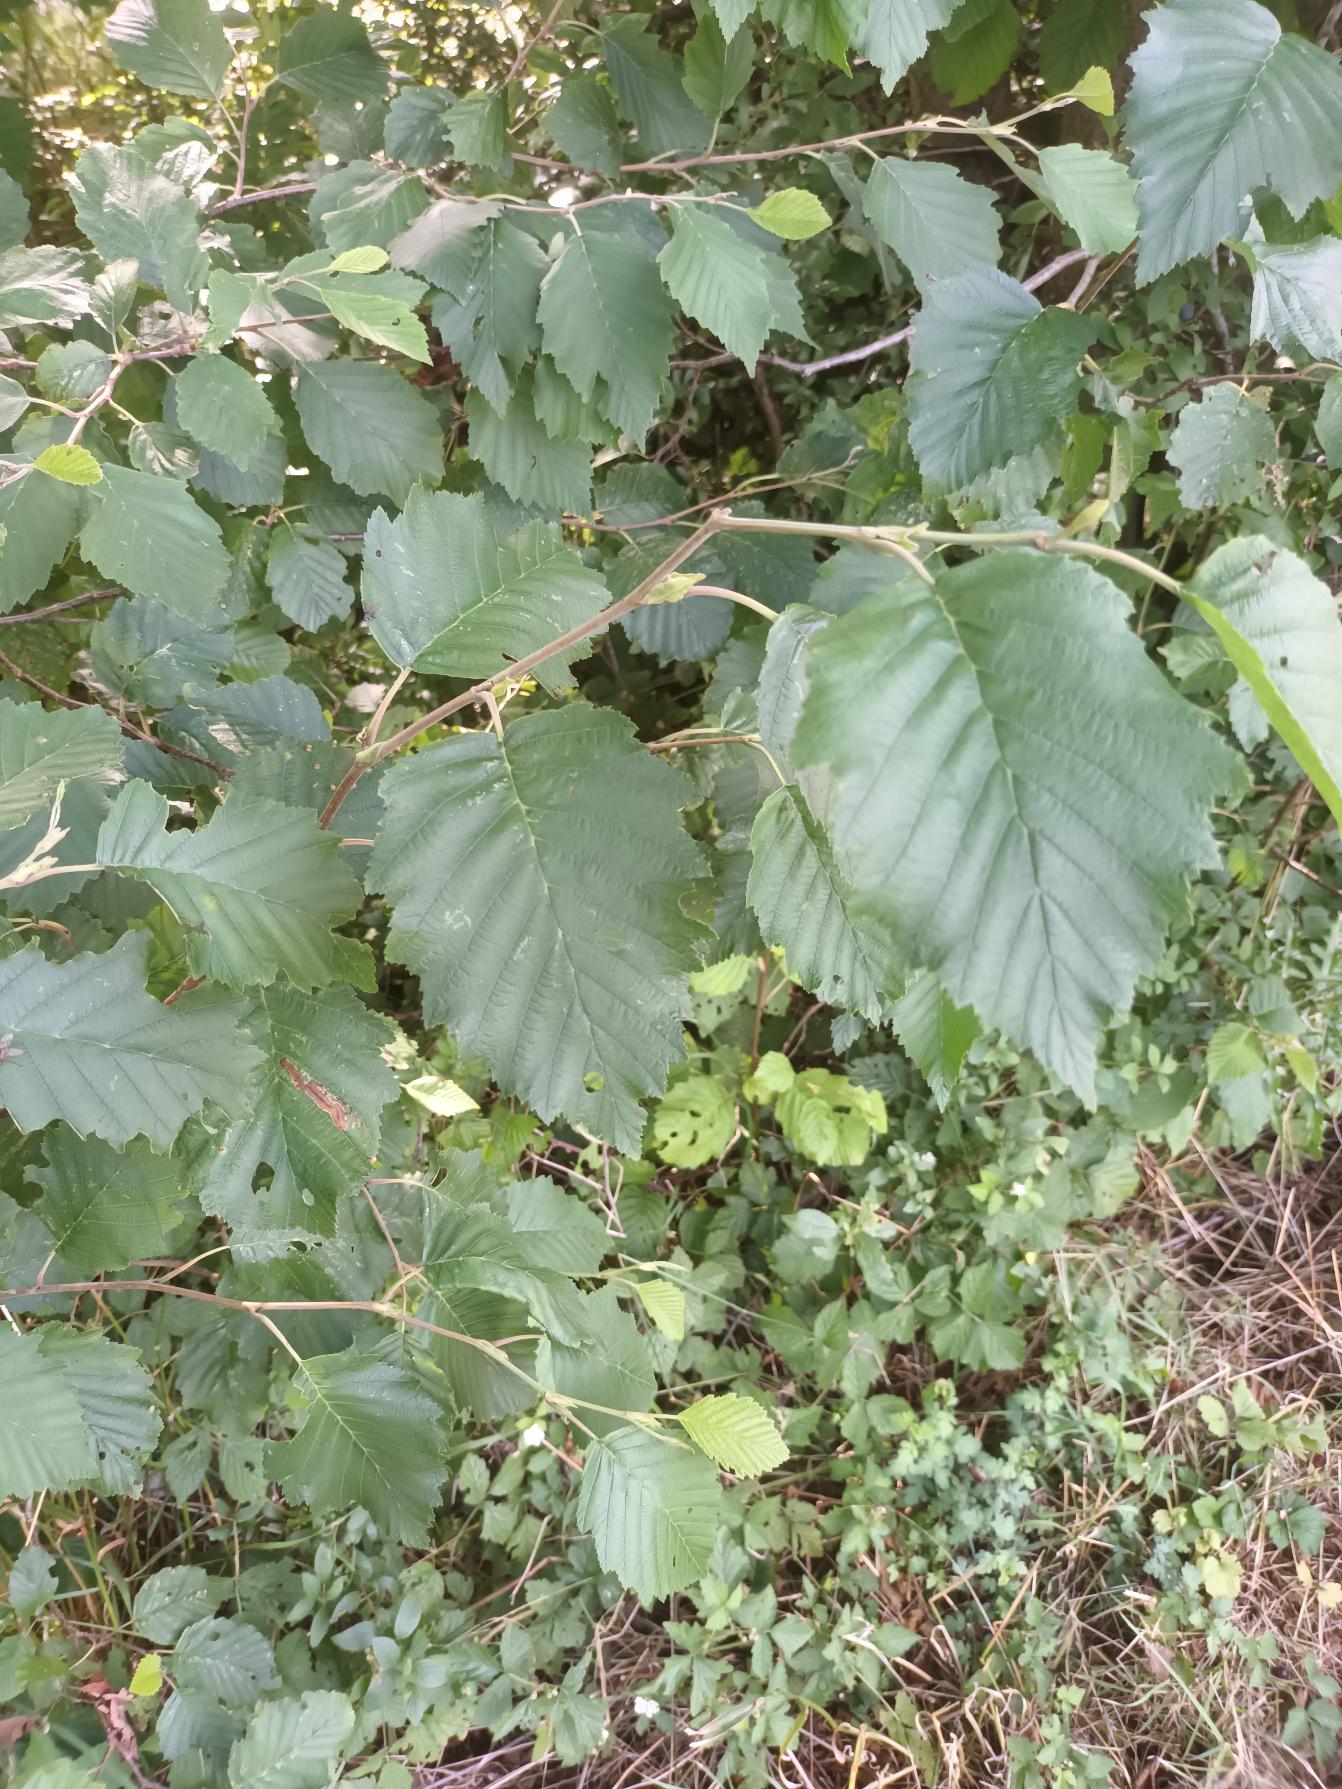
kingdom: Plantae
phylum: Tracheophyta
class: Magnoliopsida
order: Fagales
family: Betulaceae
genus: Alnus
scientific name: Alnus incana
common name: Grå-el/hvid-el
